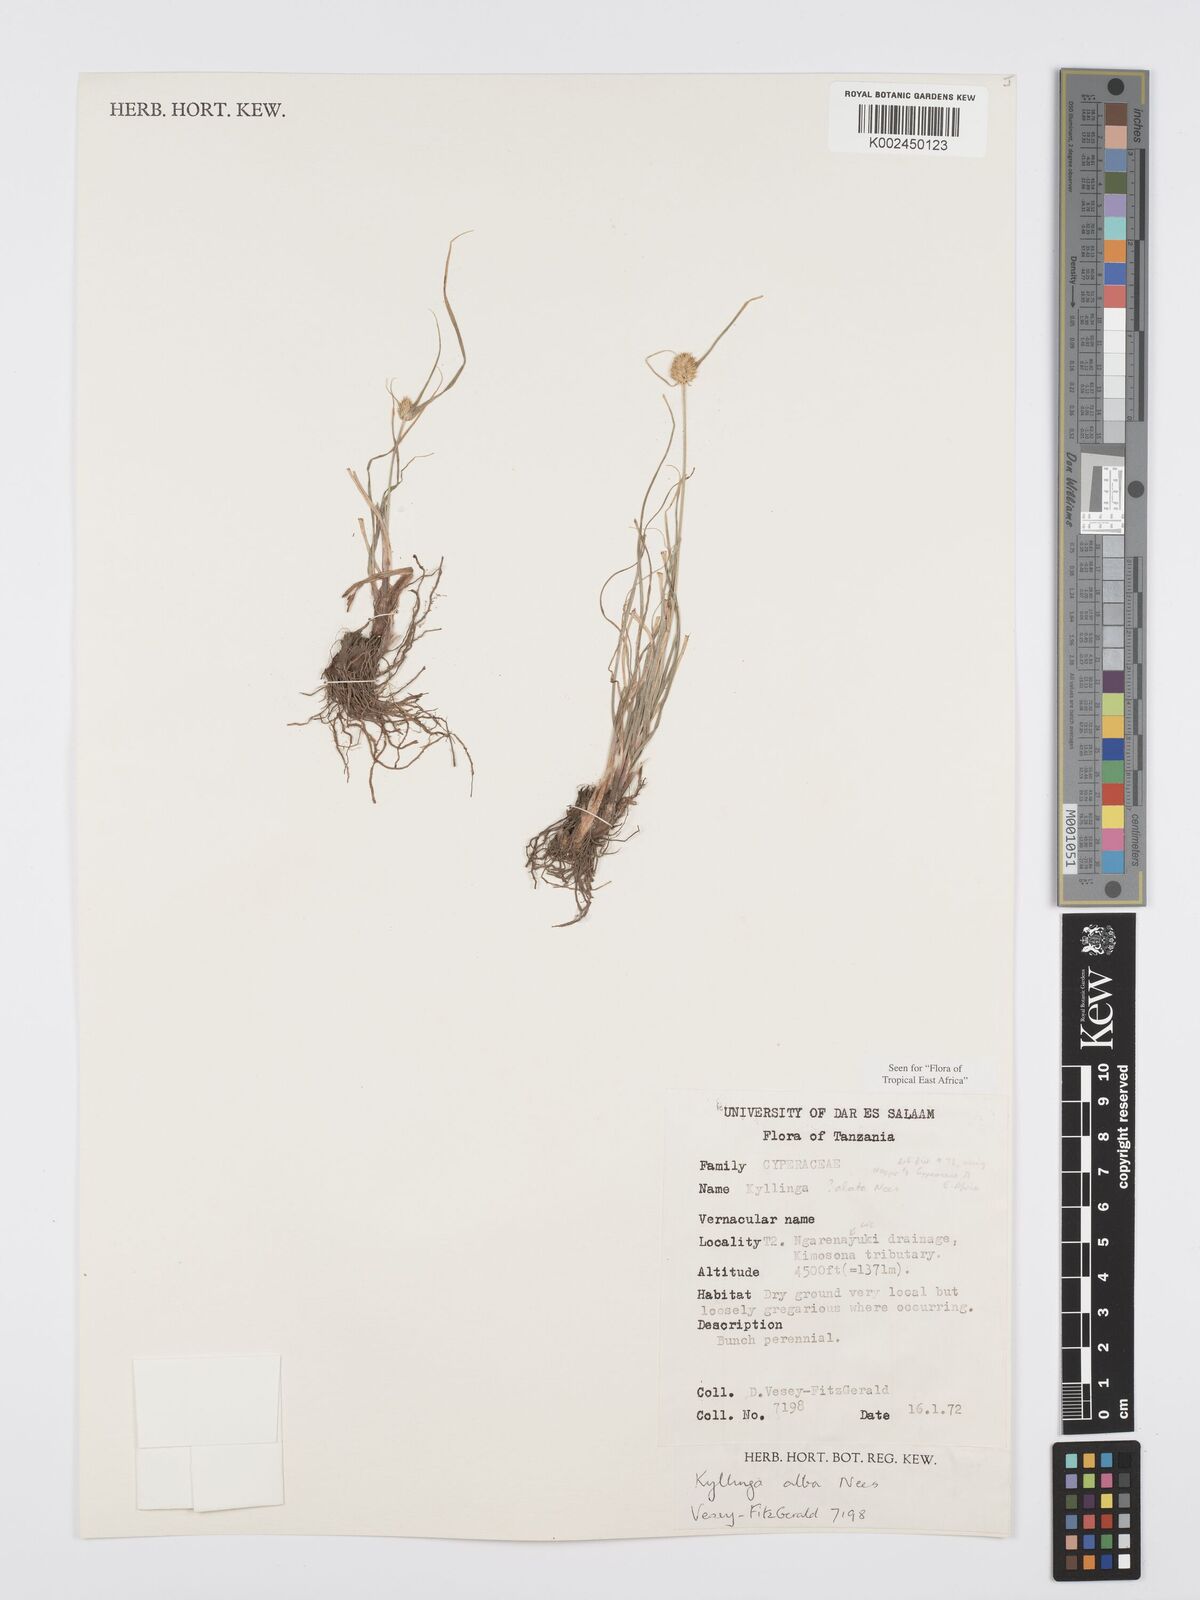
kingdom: Plantae
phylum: Tracheophyta
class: Liliopsida
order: Poales
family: Cyperaceae
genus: Cyperus
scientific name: Cyperus
